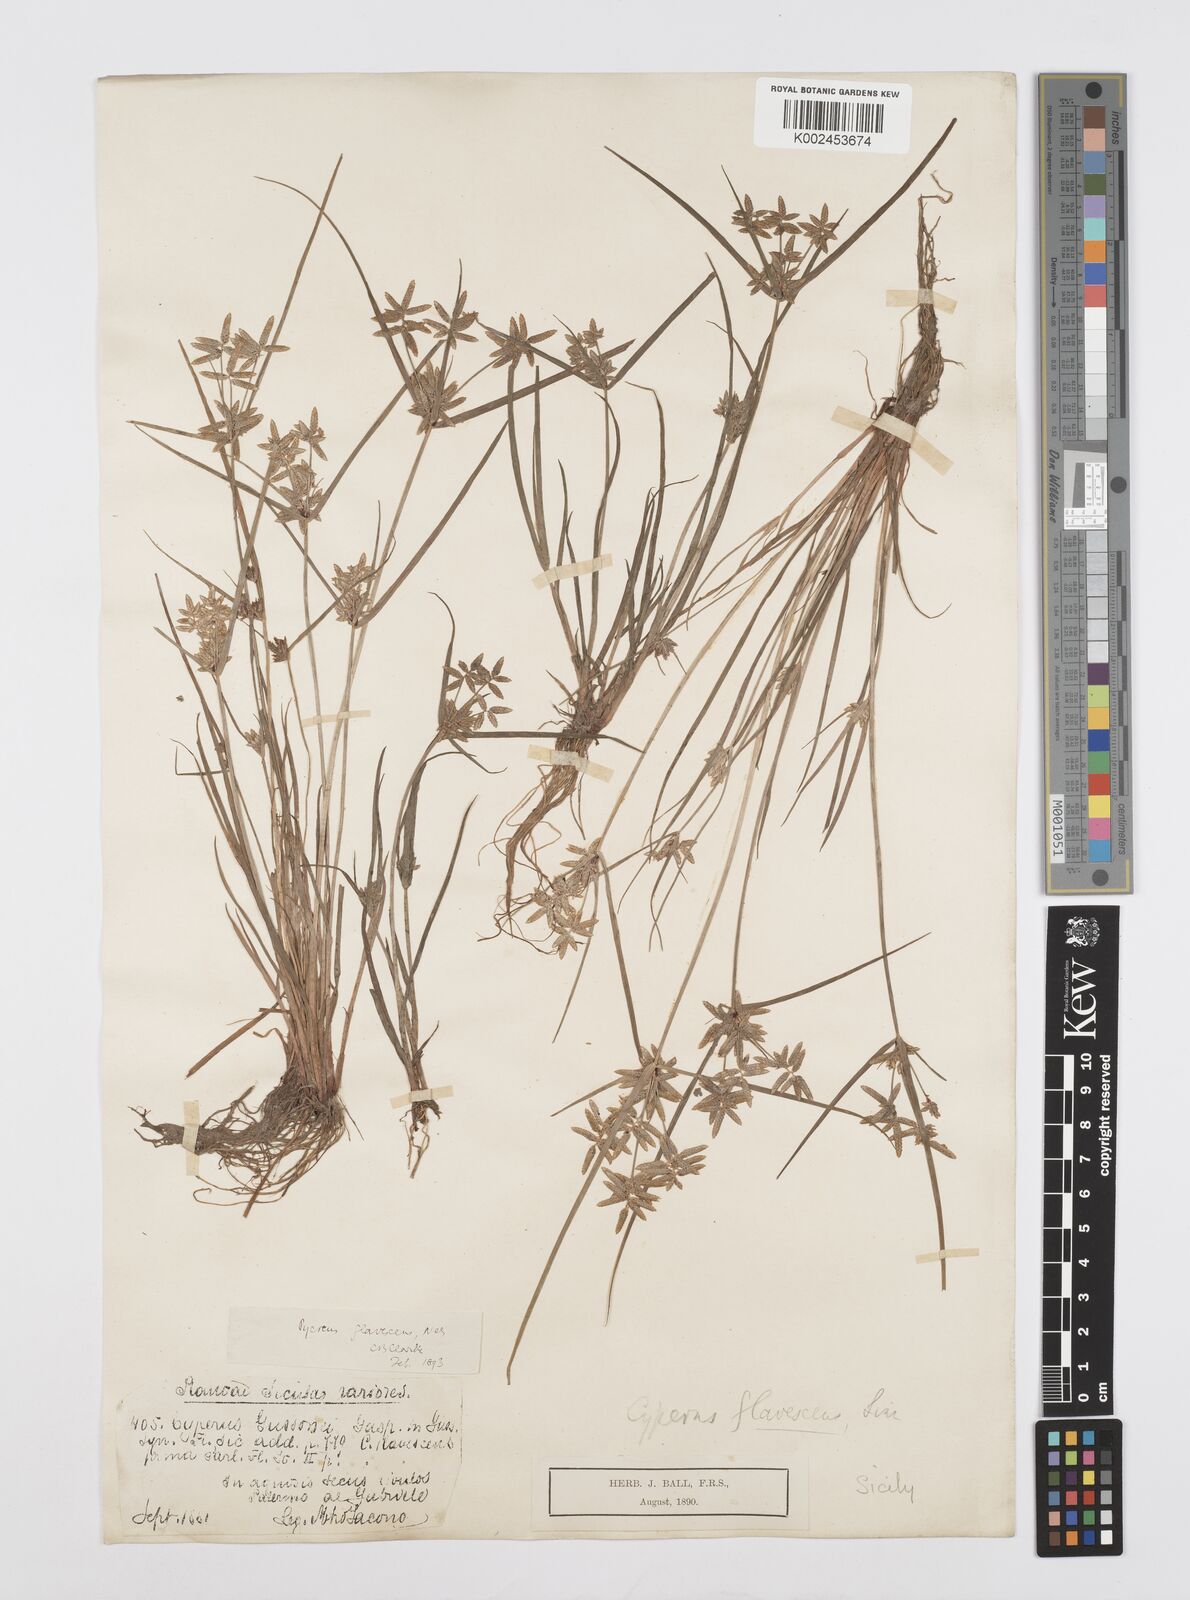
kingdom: Plantae
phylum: Tracheophyta
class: Liliopsida
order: Poales
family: Cyperaceae
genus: Cyperus
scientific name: Cyperus flavescens
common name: Yellow galingale
